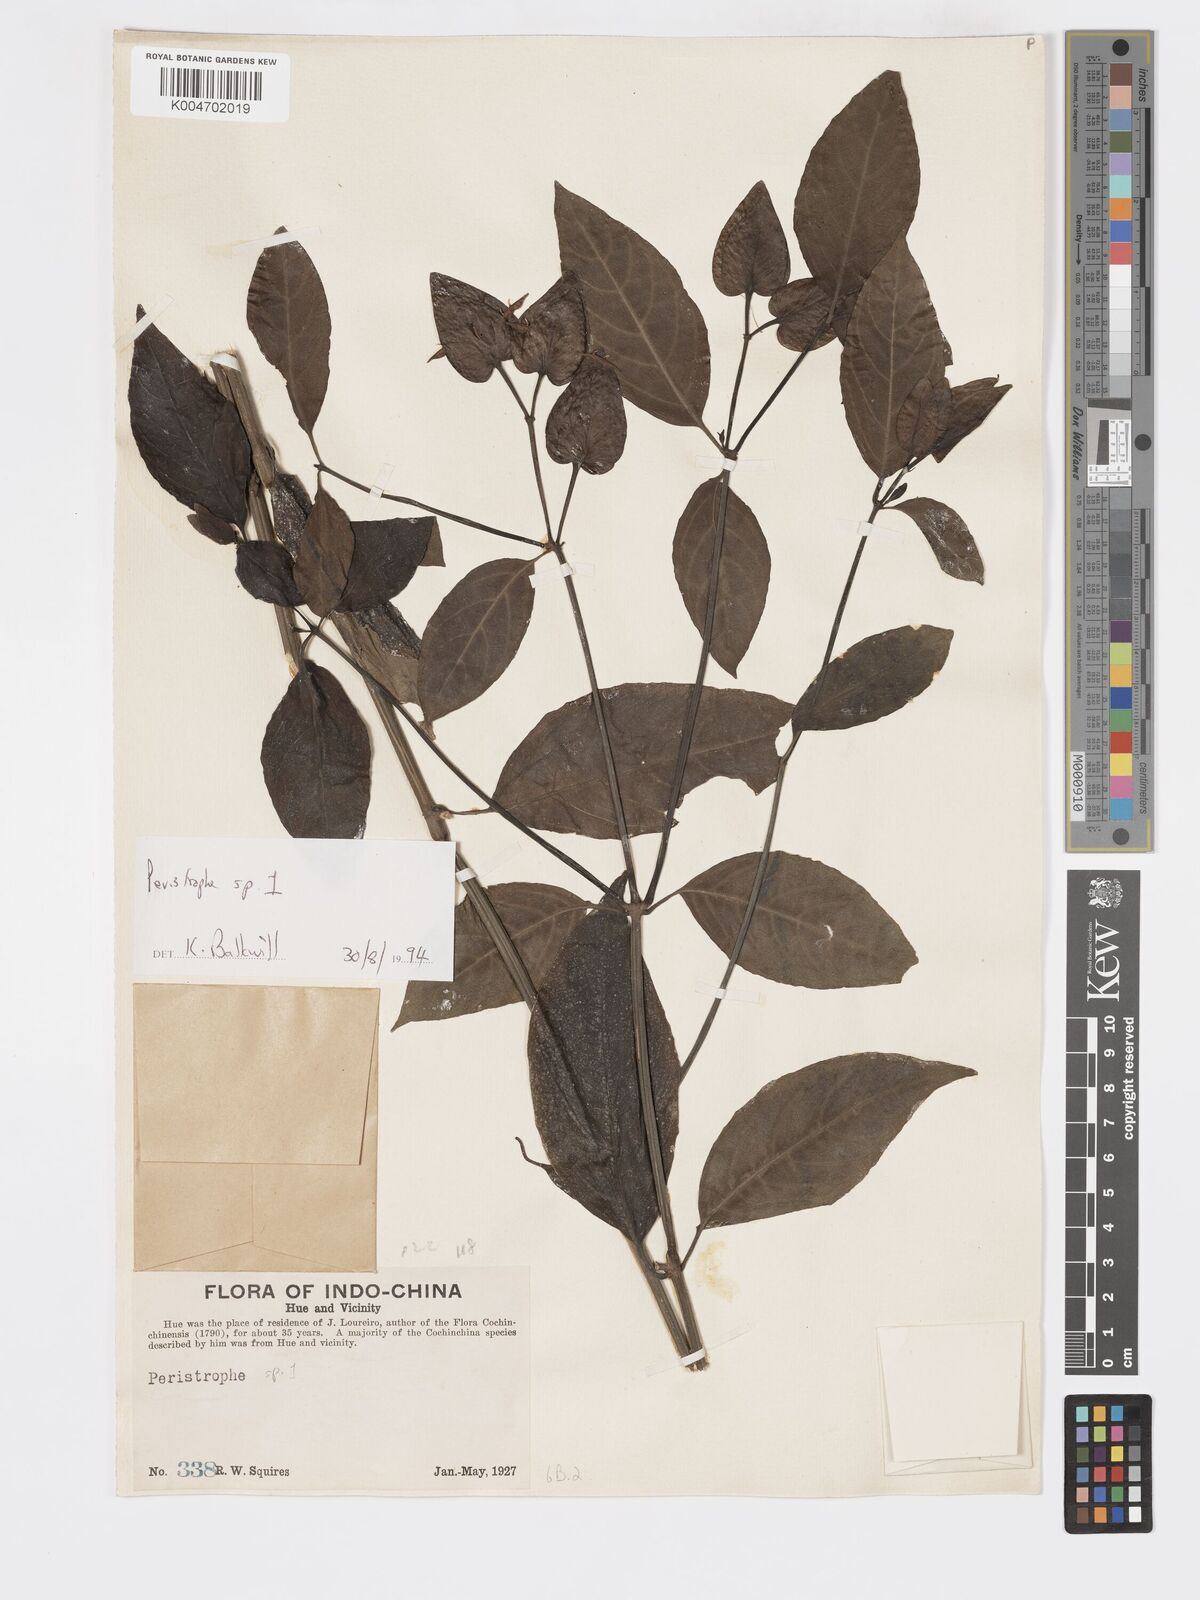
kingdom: Plantae
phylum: Tracheophyta
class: Magnoliopsida
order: Lamiales
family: Acanthaceae
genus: Dicliptera
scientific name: Dicliptera
